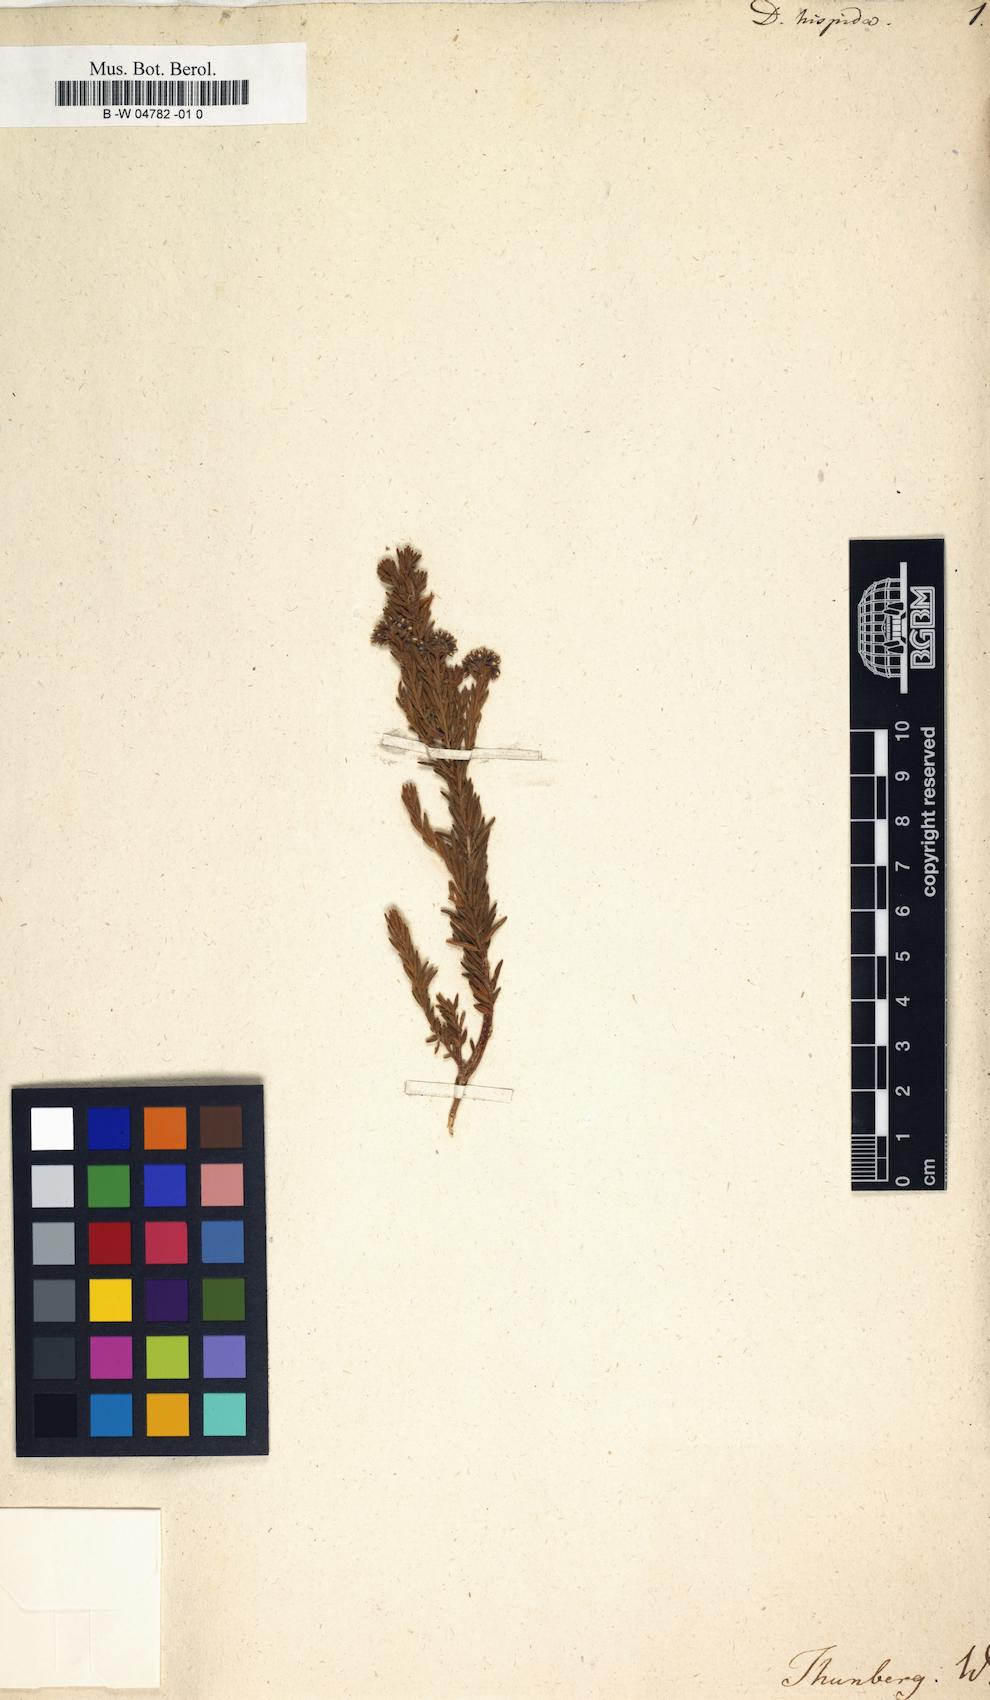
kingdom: Plantae
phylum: Tracheophyta
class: Magnoliopsida
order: Sapindales
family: Rutaceae
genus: Agathosma
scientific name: Agathosma
